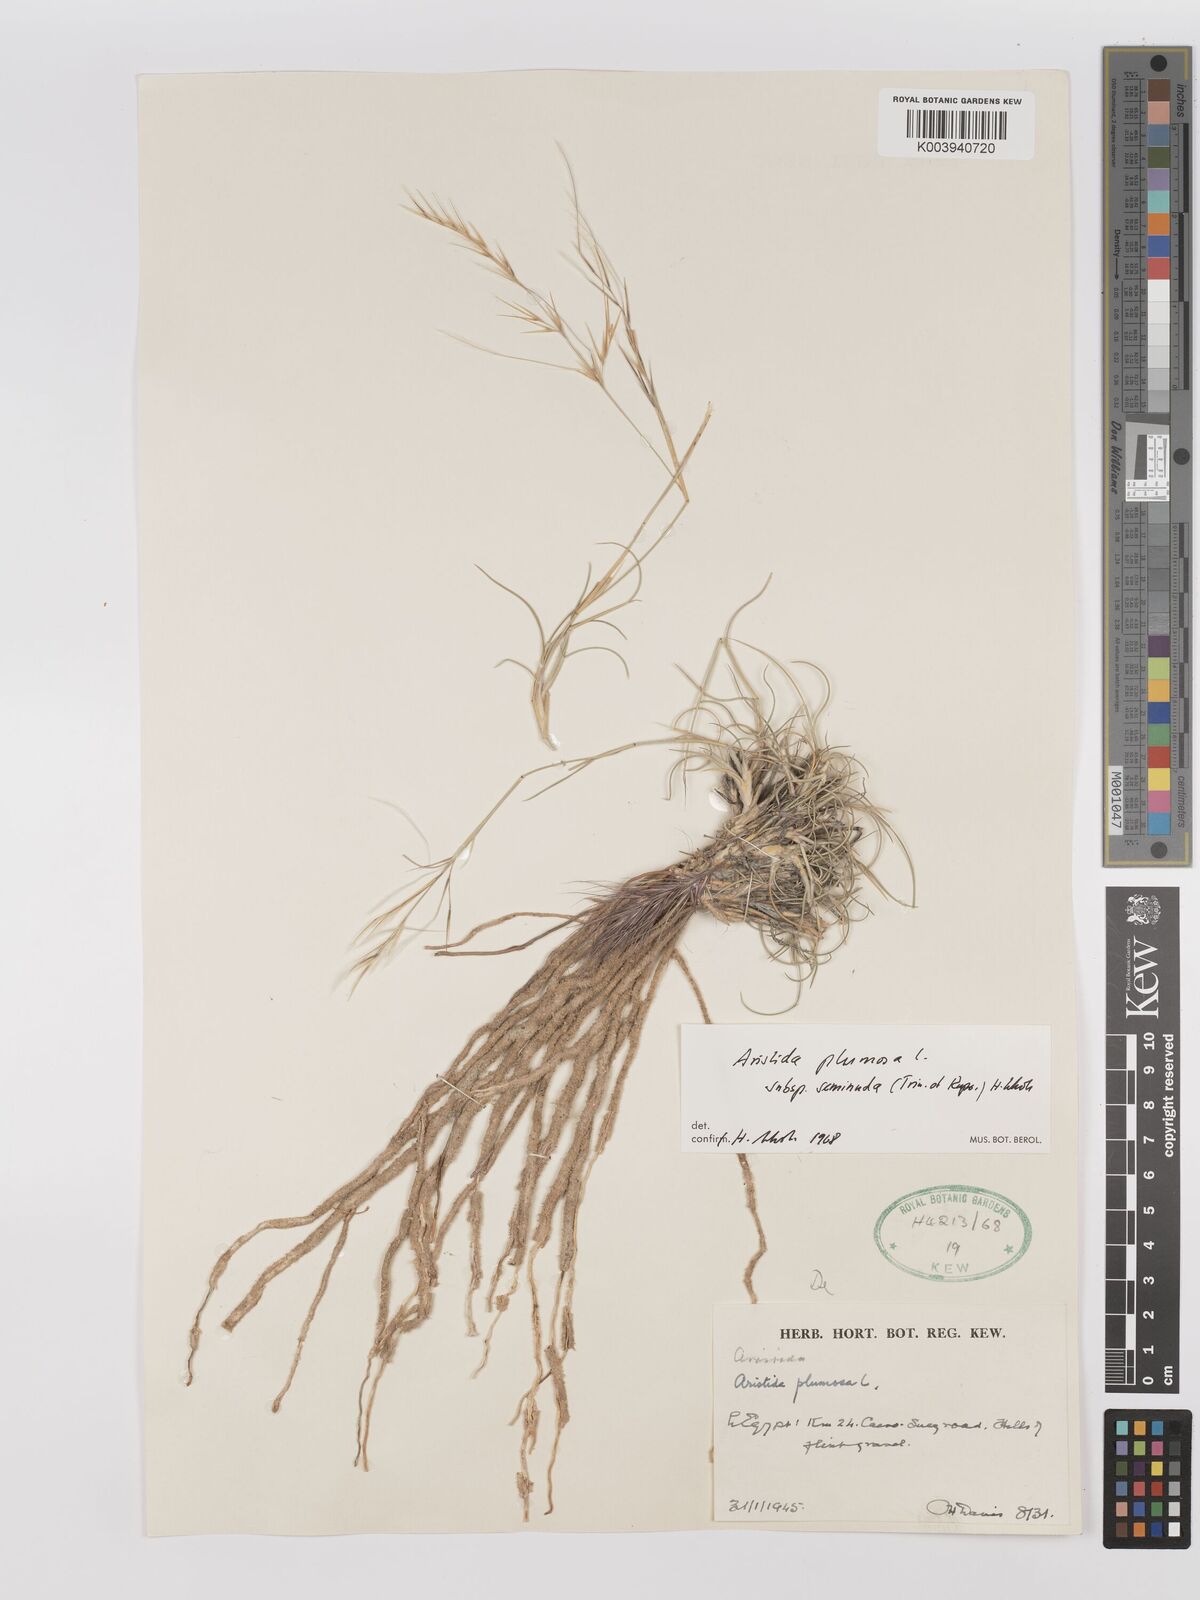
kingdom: Plantae
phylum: Tracheophyta
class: Liliopsida
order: Poales
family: Poaceae
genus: Stipagrostis
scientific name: Stipagrostis plumosa
